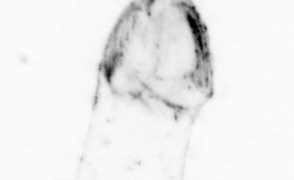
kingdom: Animalia
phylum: Chaetognatha
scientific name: Chaetognatha
